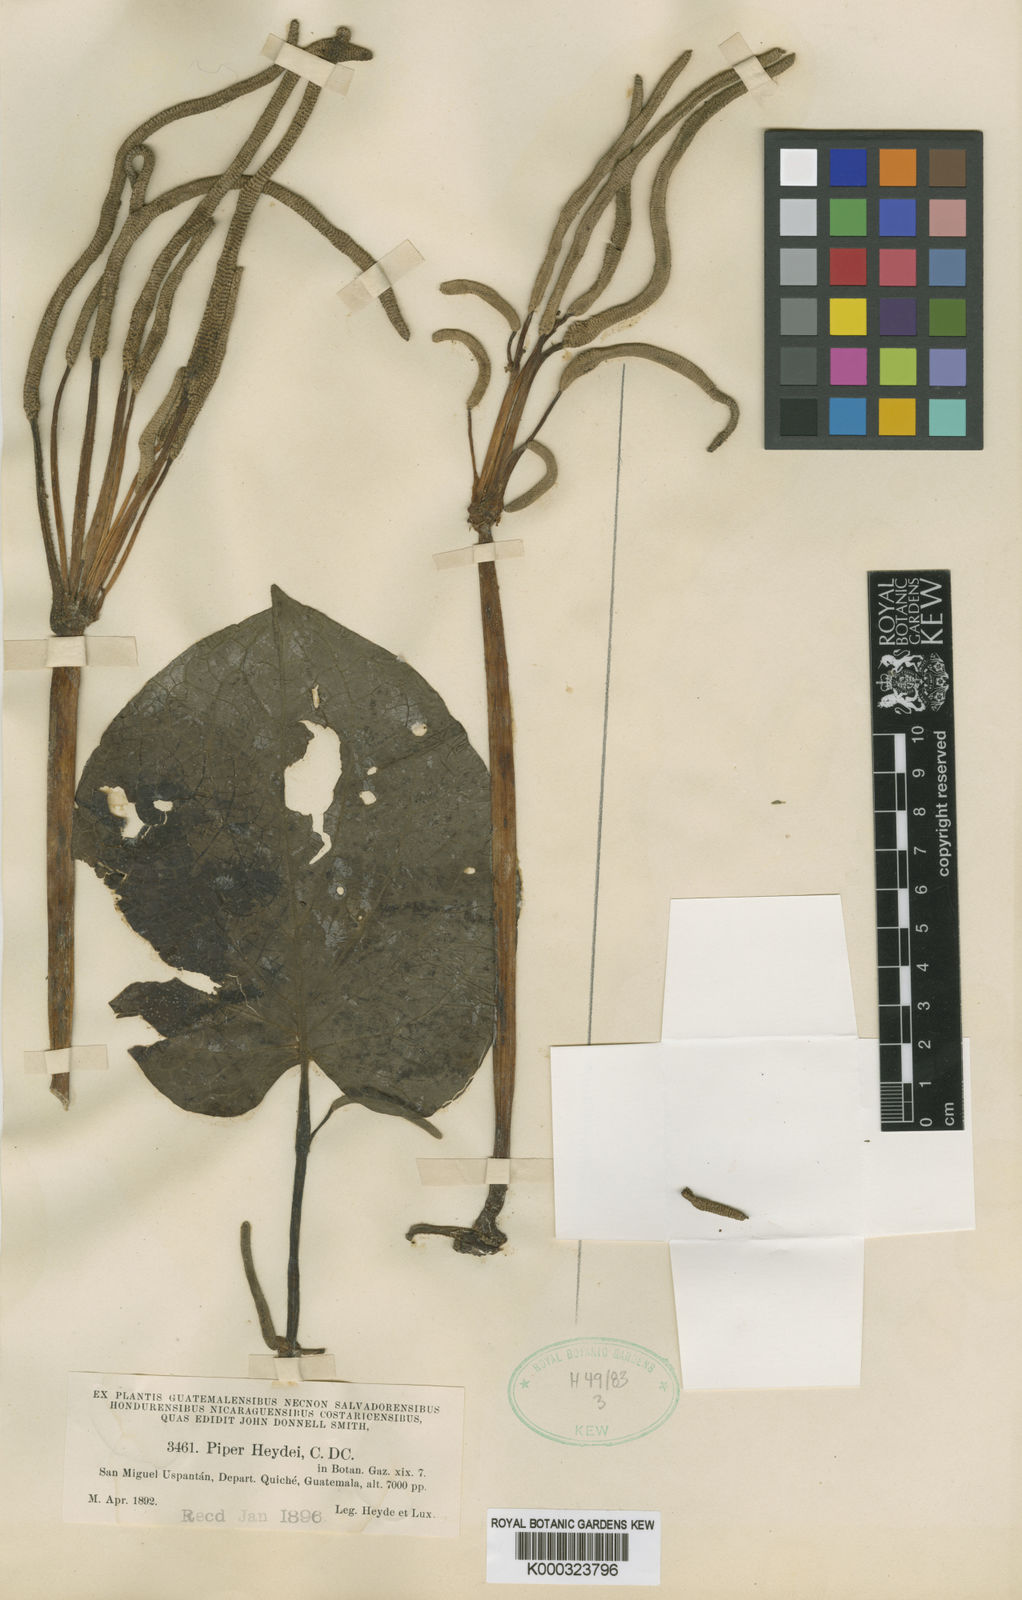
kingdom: Plantae
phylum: Tracheophyta
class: Magnoliopsida
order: Piperales
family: Piperaceae
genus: Piper
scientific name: Piper heydei
